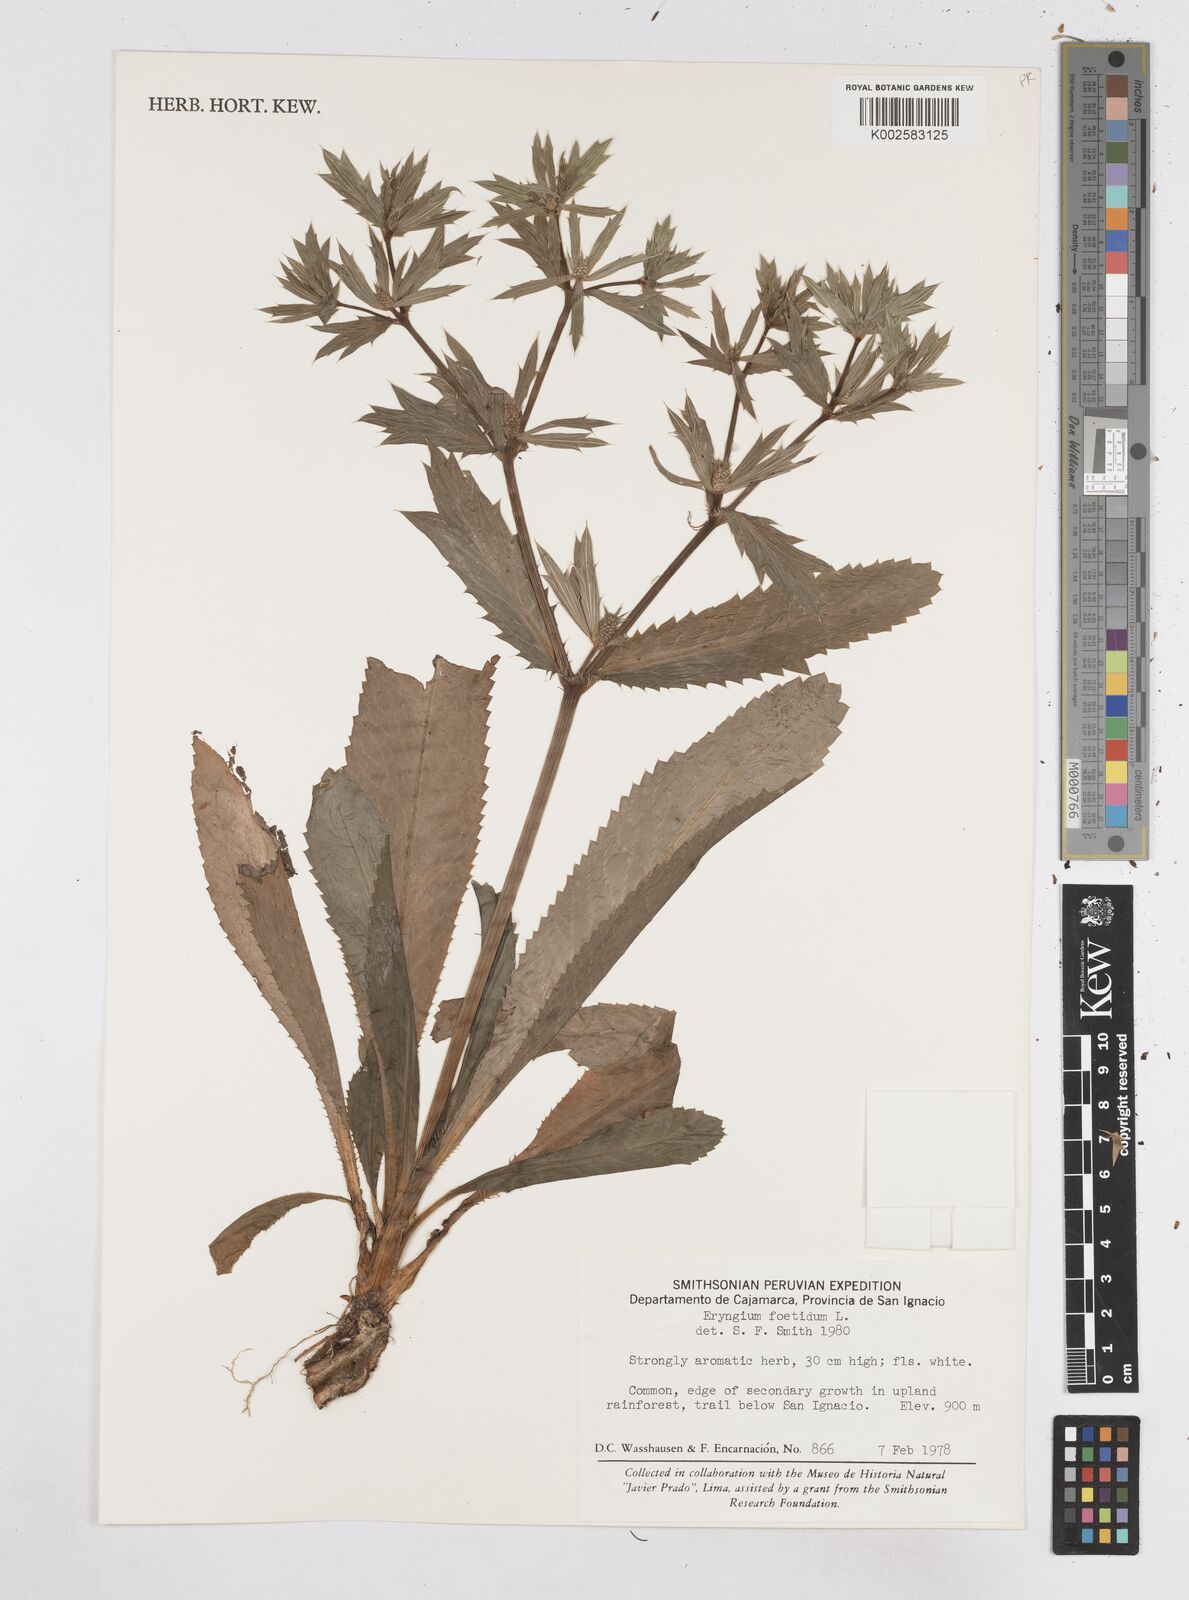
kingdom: Plantae
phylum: Tracheophyta
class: Magnoliopsida
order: Apiales
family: Apiaceae
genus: Eryngium
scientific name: Eryngium foetidum
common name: Fitweed
